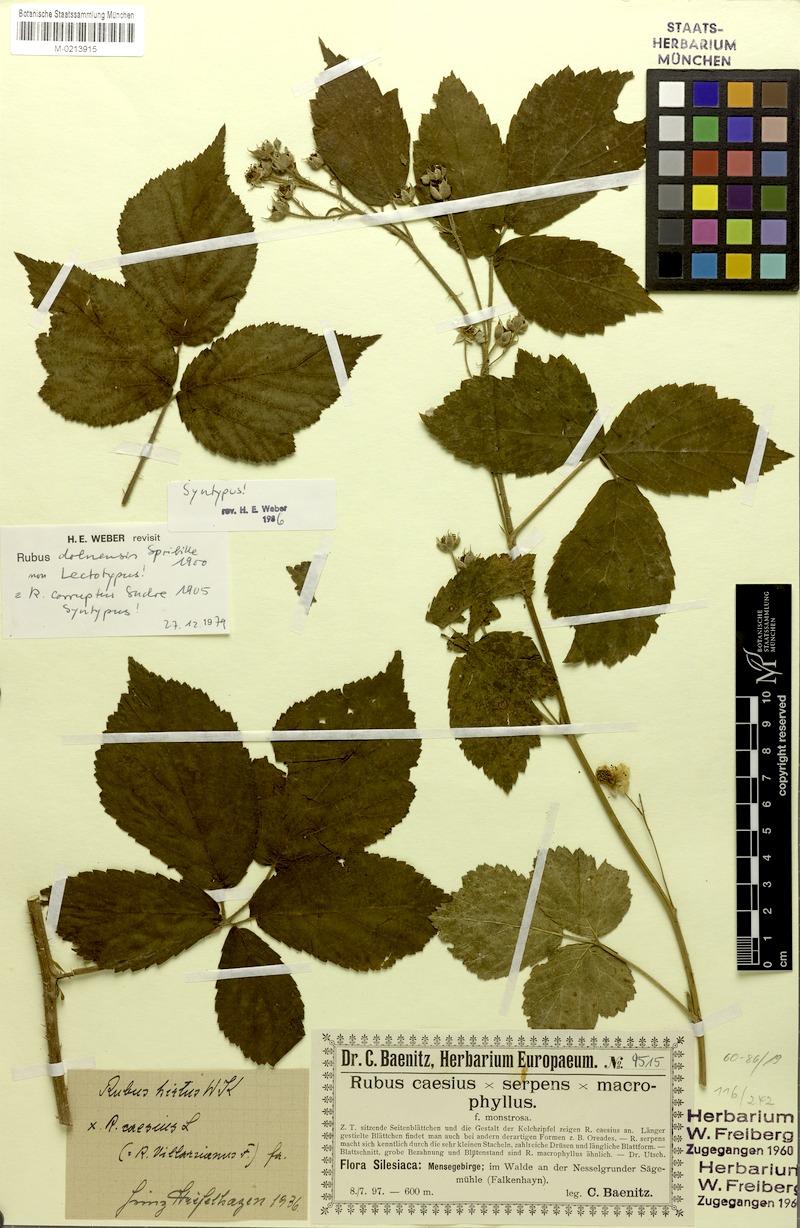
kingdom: Plantae
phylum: Tracheophyta
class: Magnoliopsida
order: Rosales
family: Rosaceae
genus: Rubus
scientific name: Rubus dollnensis
